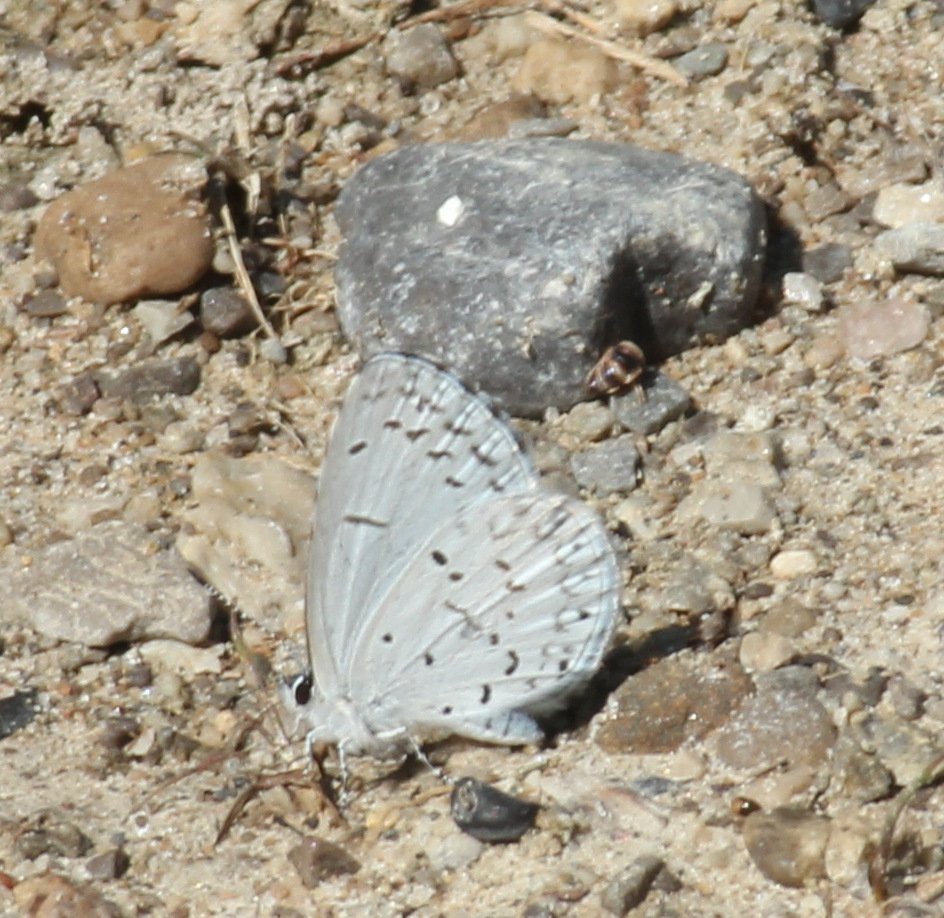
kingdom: Animalia
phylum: Arthropoda
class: Insecta
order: Lepidoptera
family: Lycaenidae
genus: Celastrina
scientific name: Celastrina
